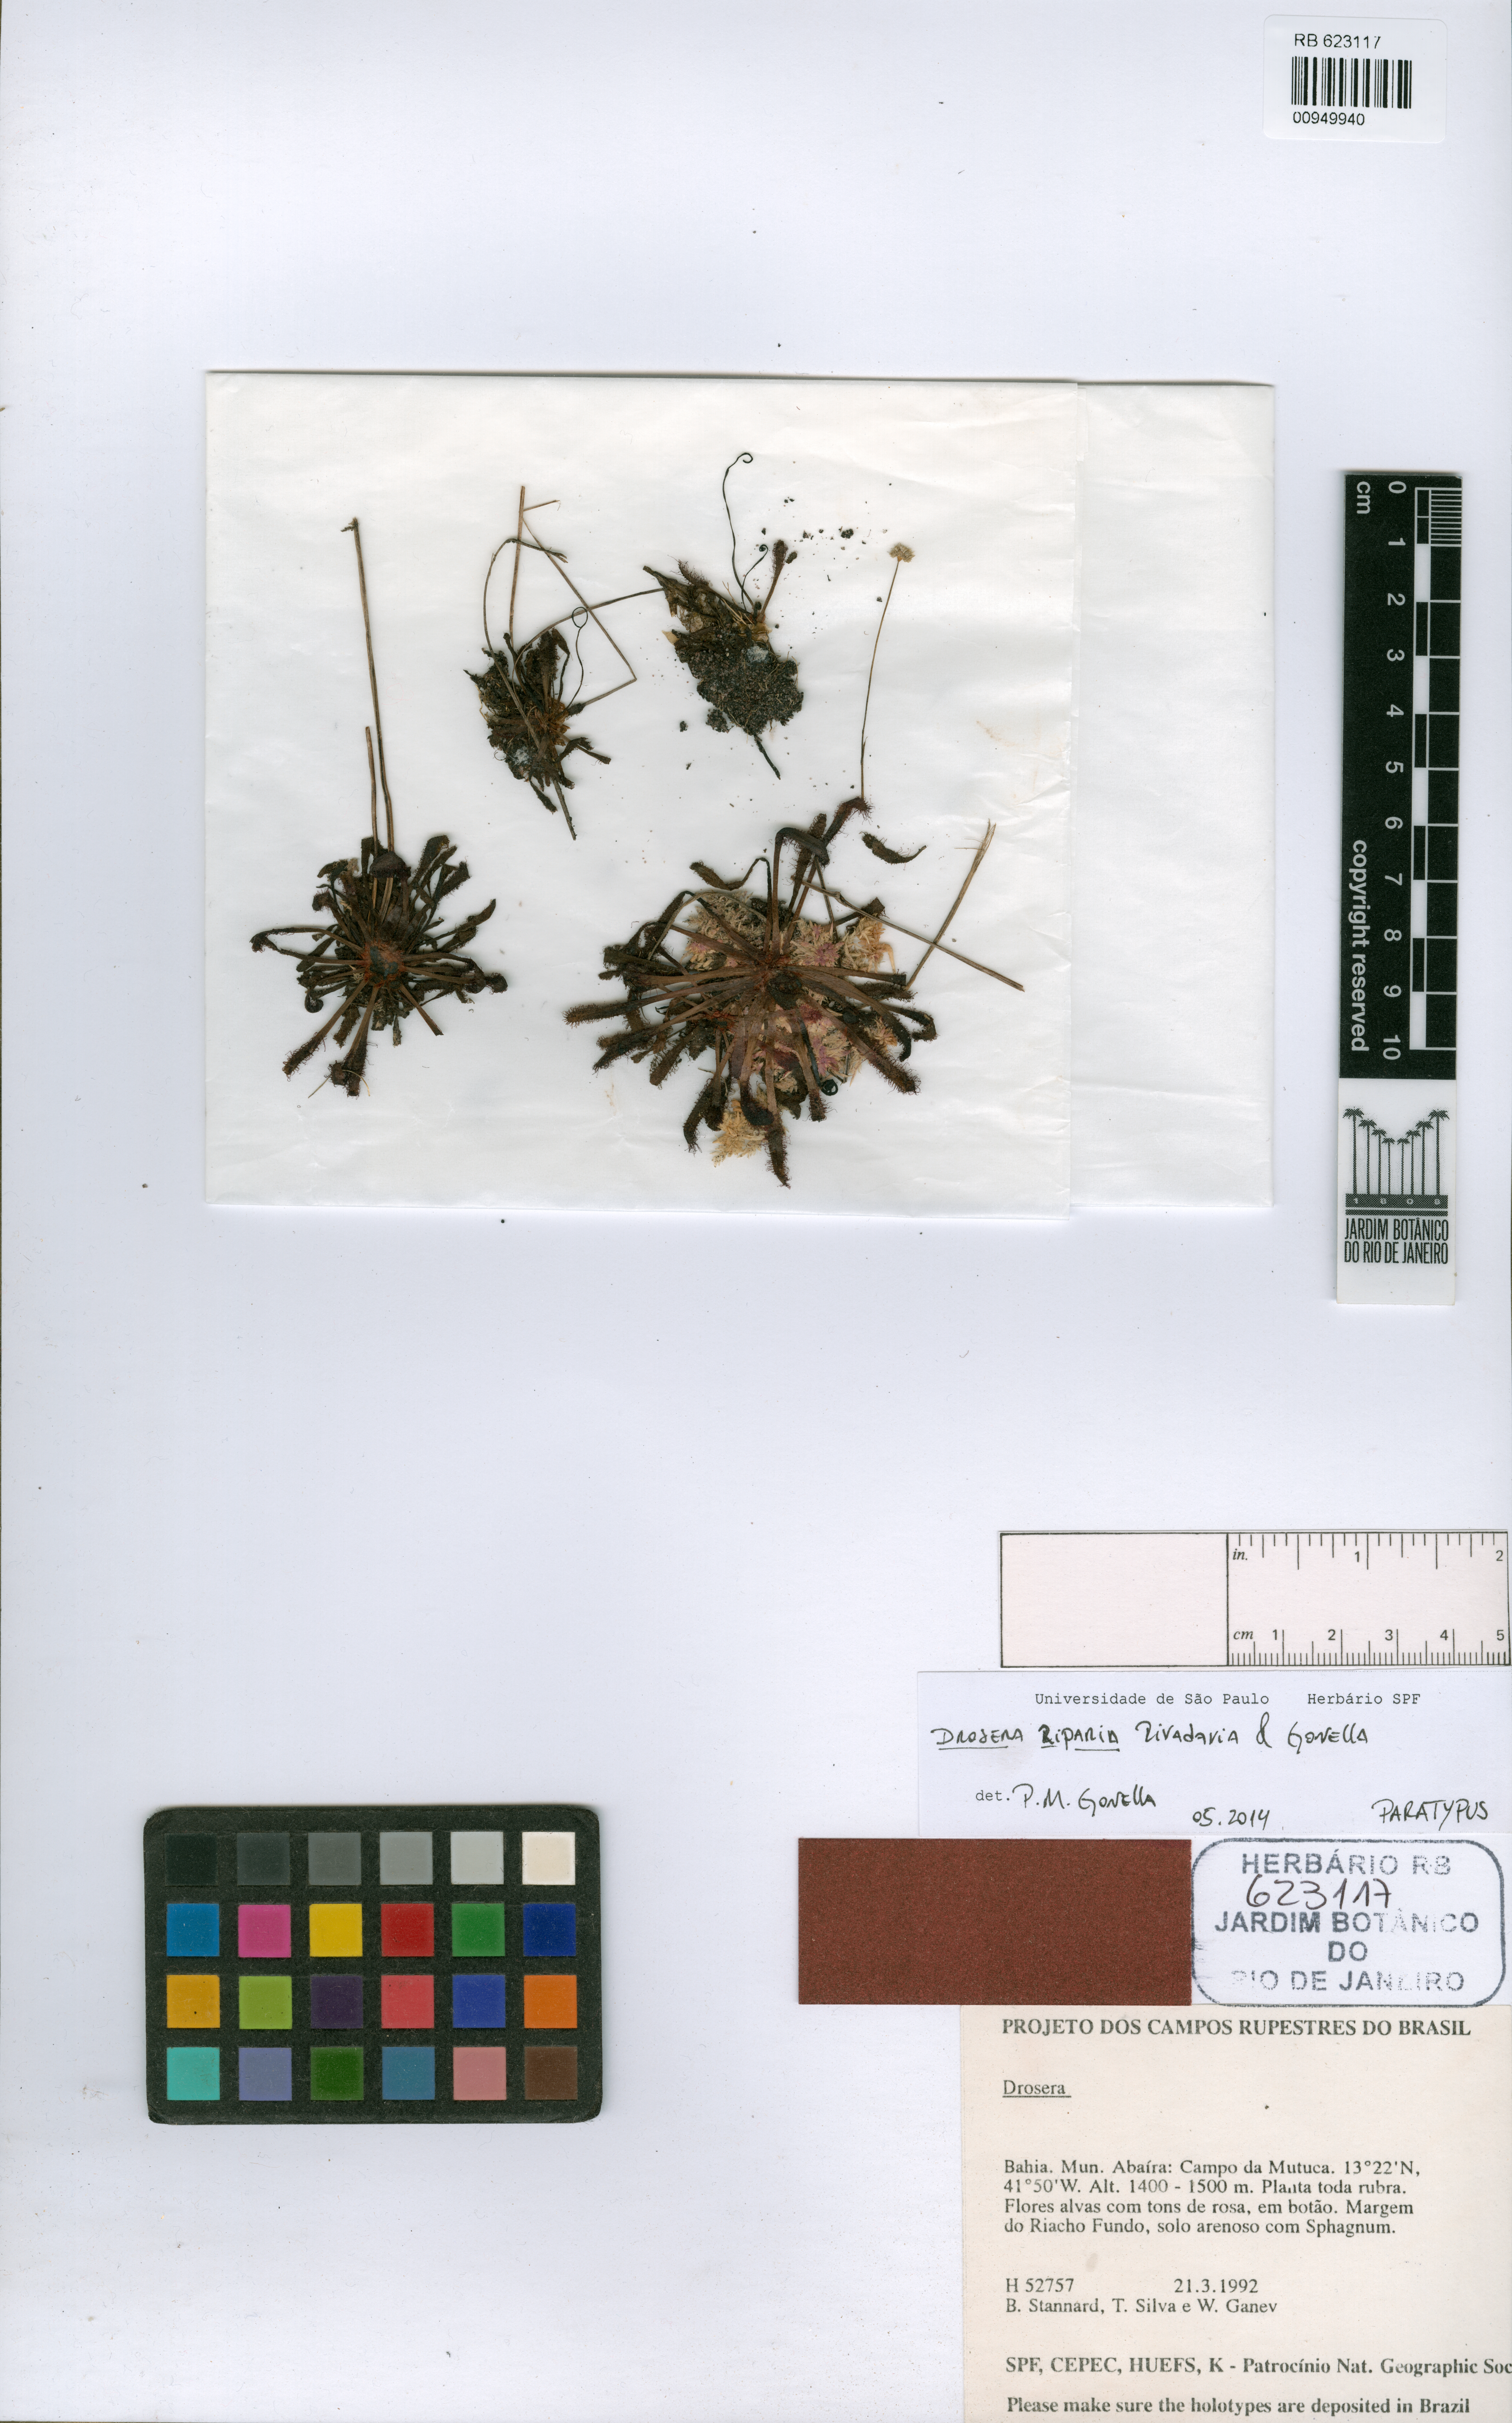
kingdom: Plantae
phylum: Tracheophyta
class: Magnoliopsida
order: Caryophyllales
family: Droseraceae
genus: Drosera
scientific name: Drosera riparia
